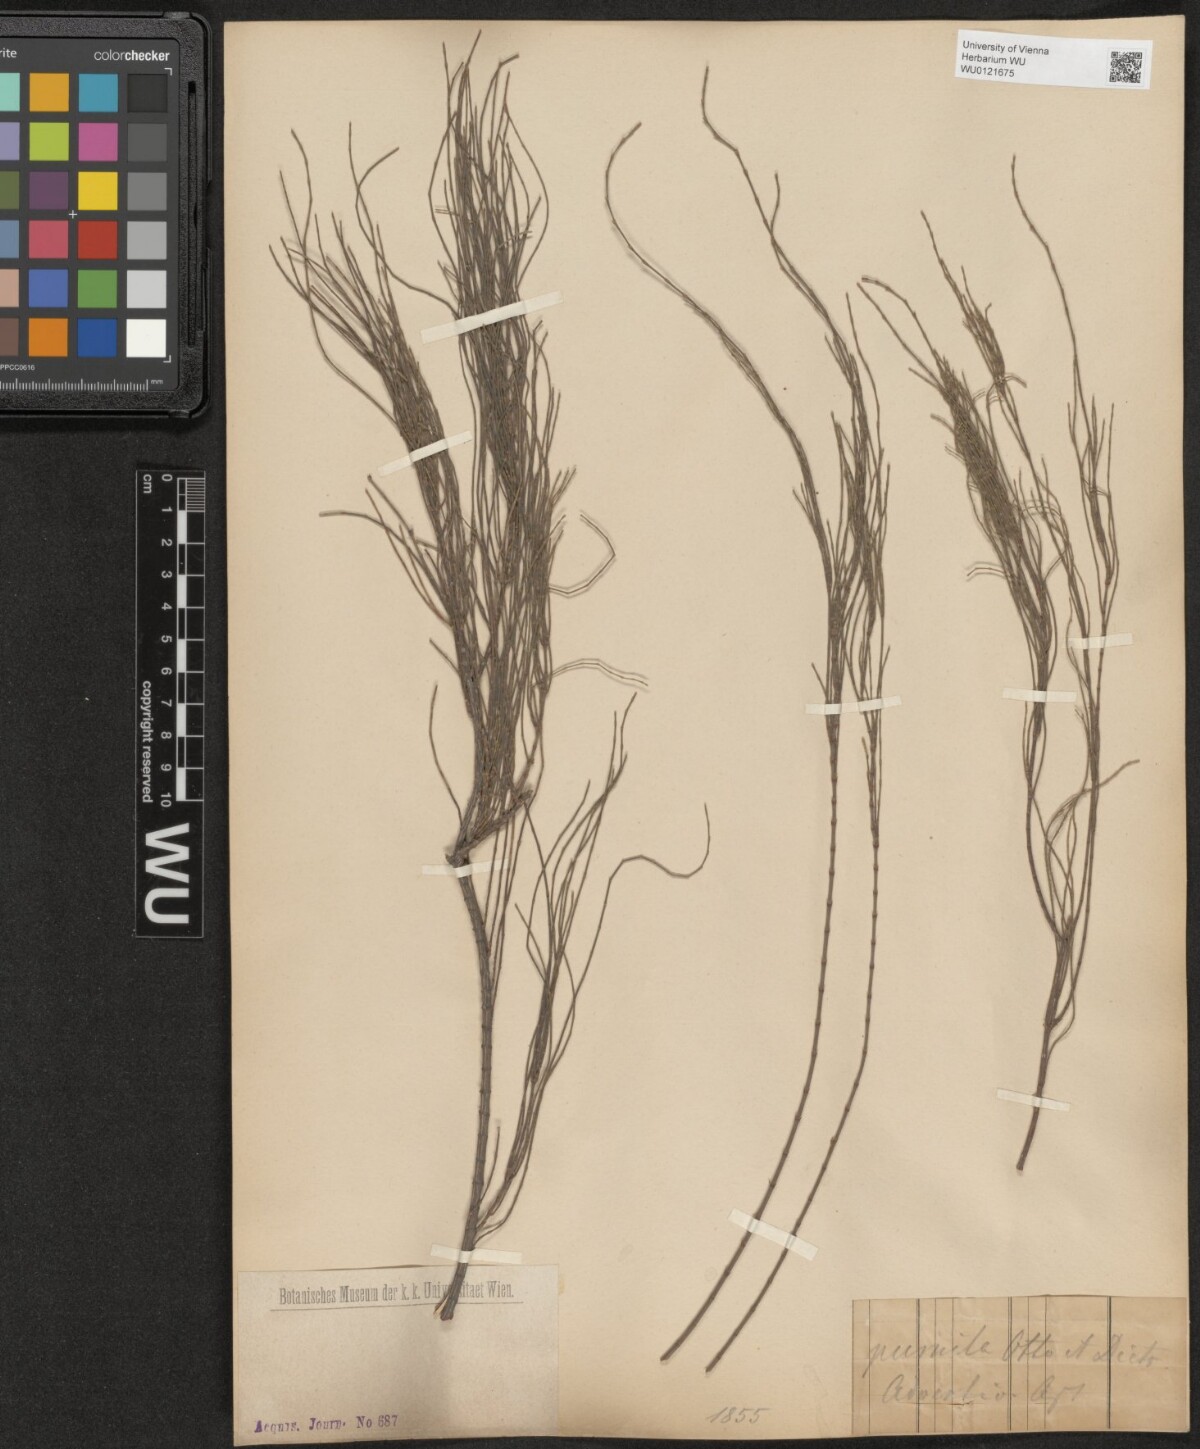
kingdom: Plantae
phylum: Tracheophyta
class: Magnoliopsida
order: Fagales
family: Casuarinaceae
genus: Allocasuarina
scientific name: Allocasuarina paludosa
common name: Scrub she-oak
